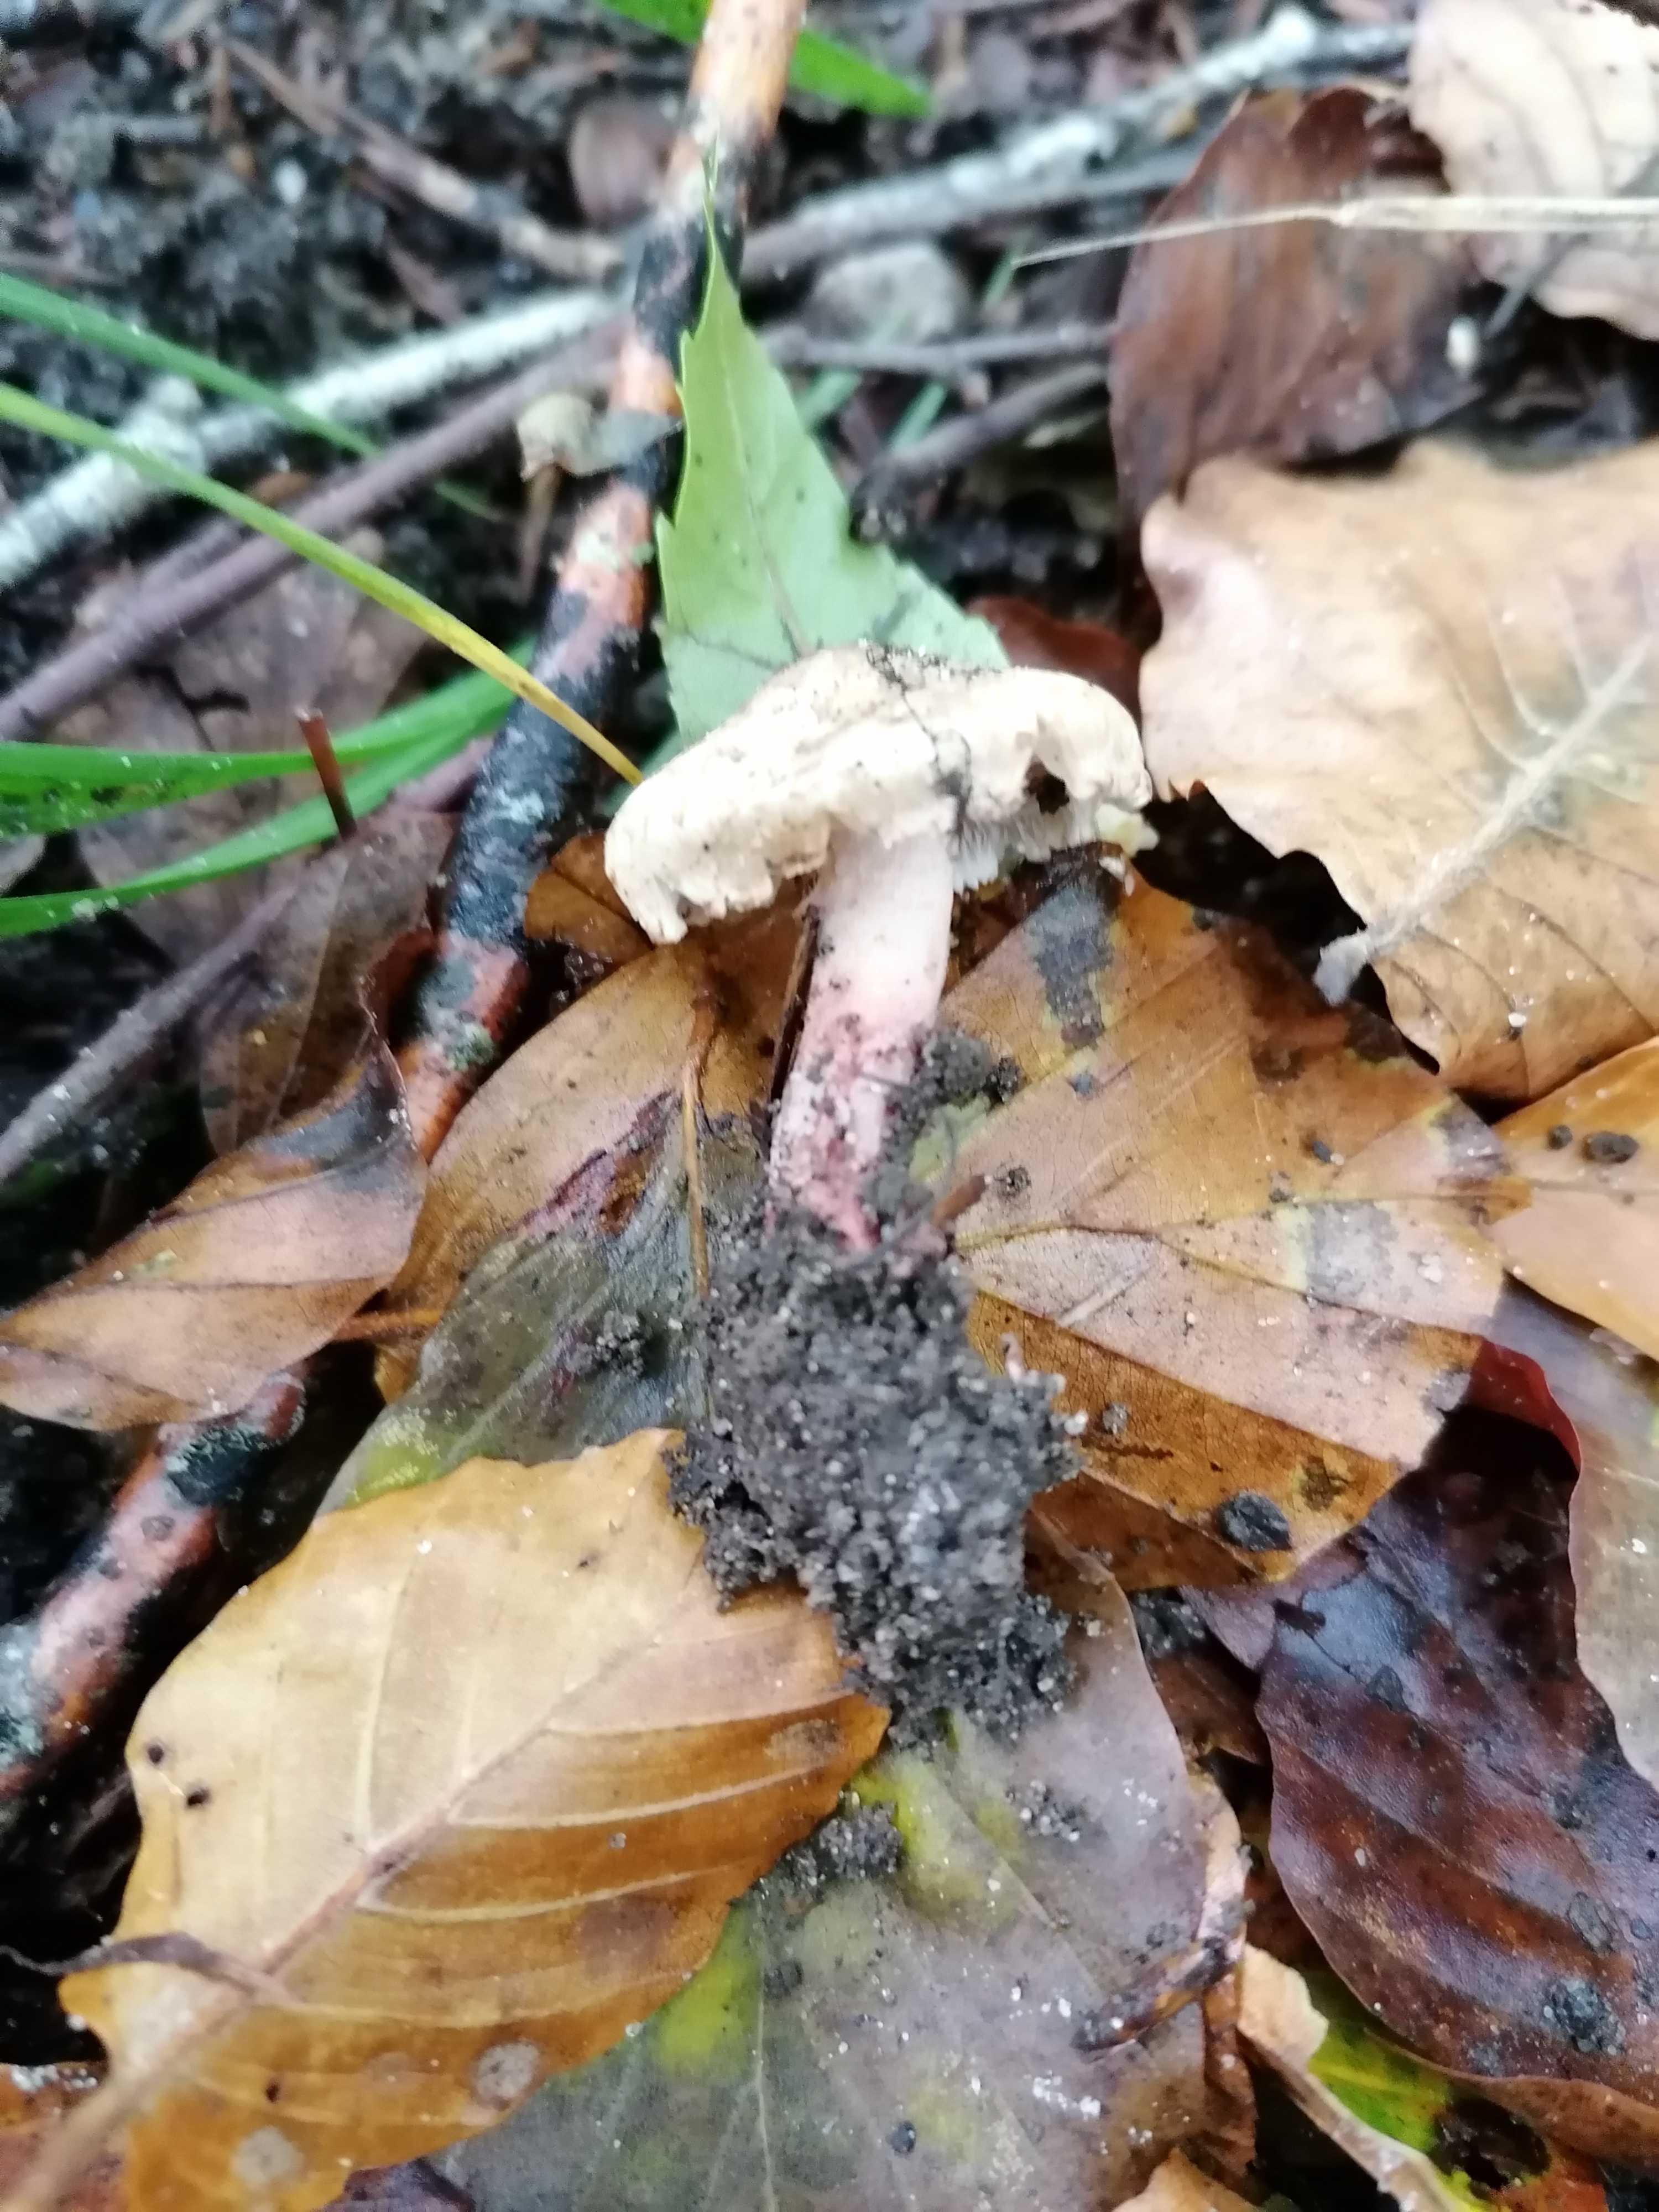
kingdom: Fungi
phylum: Basidiomycota
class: Agaricomycetes
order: Agaricales
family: Inocybaceae
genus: Inosperma
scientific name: Inosperma adaequatum
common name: vinrød trævlhat
